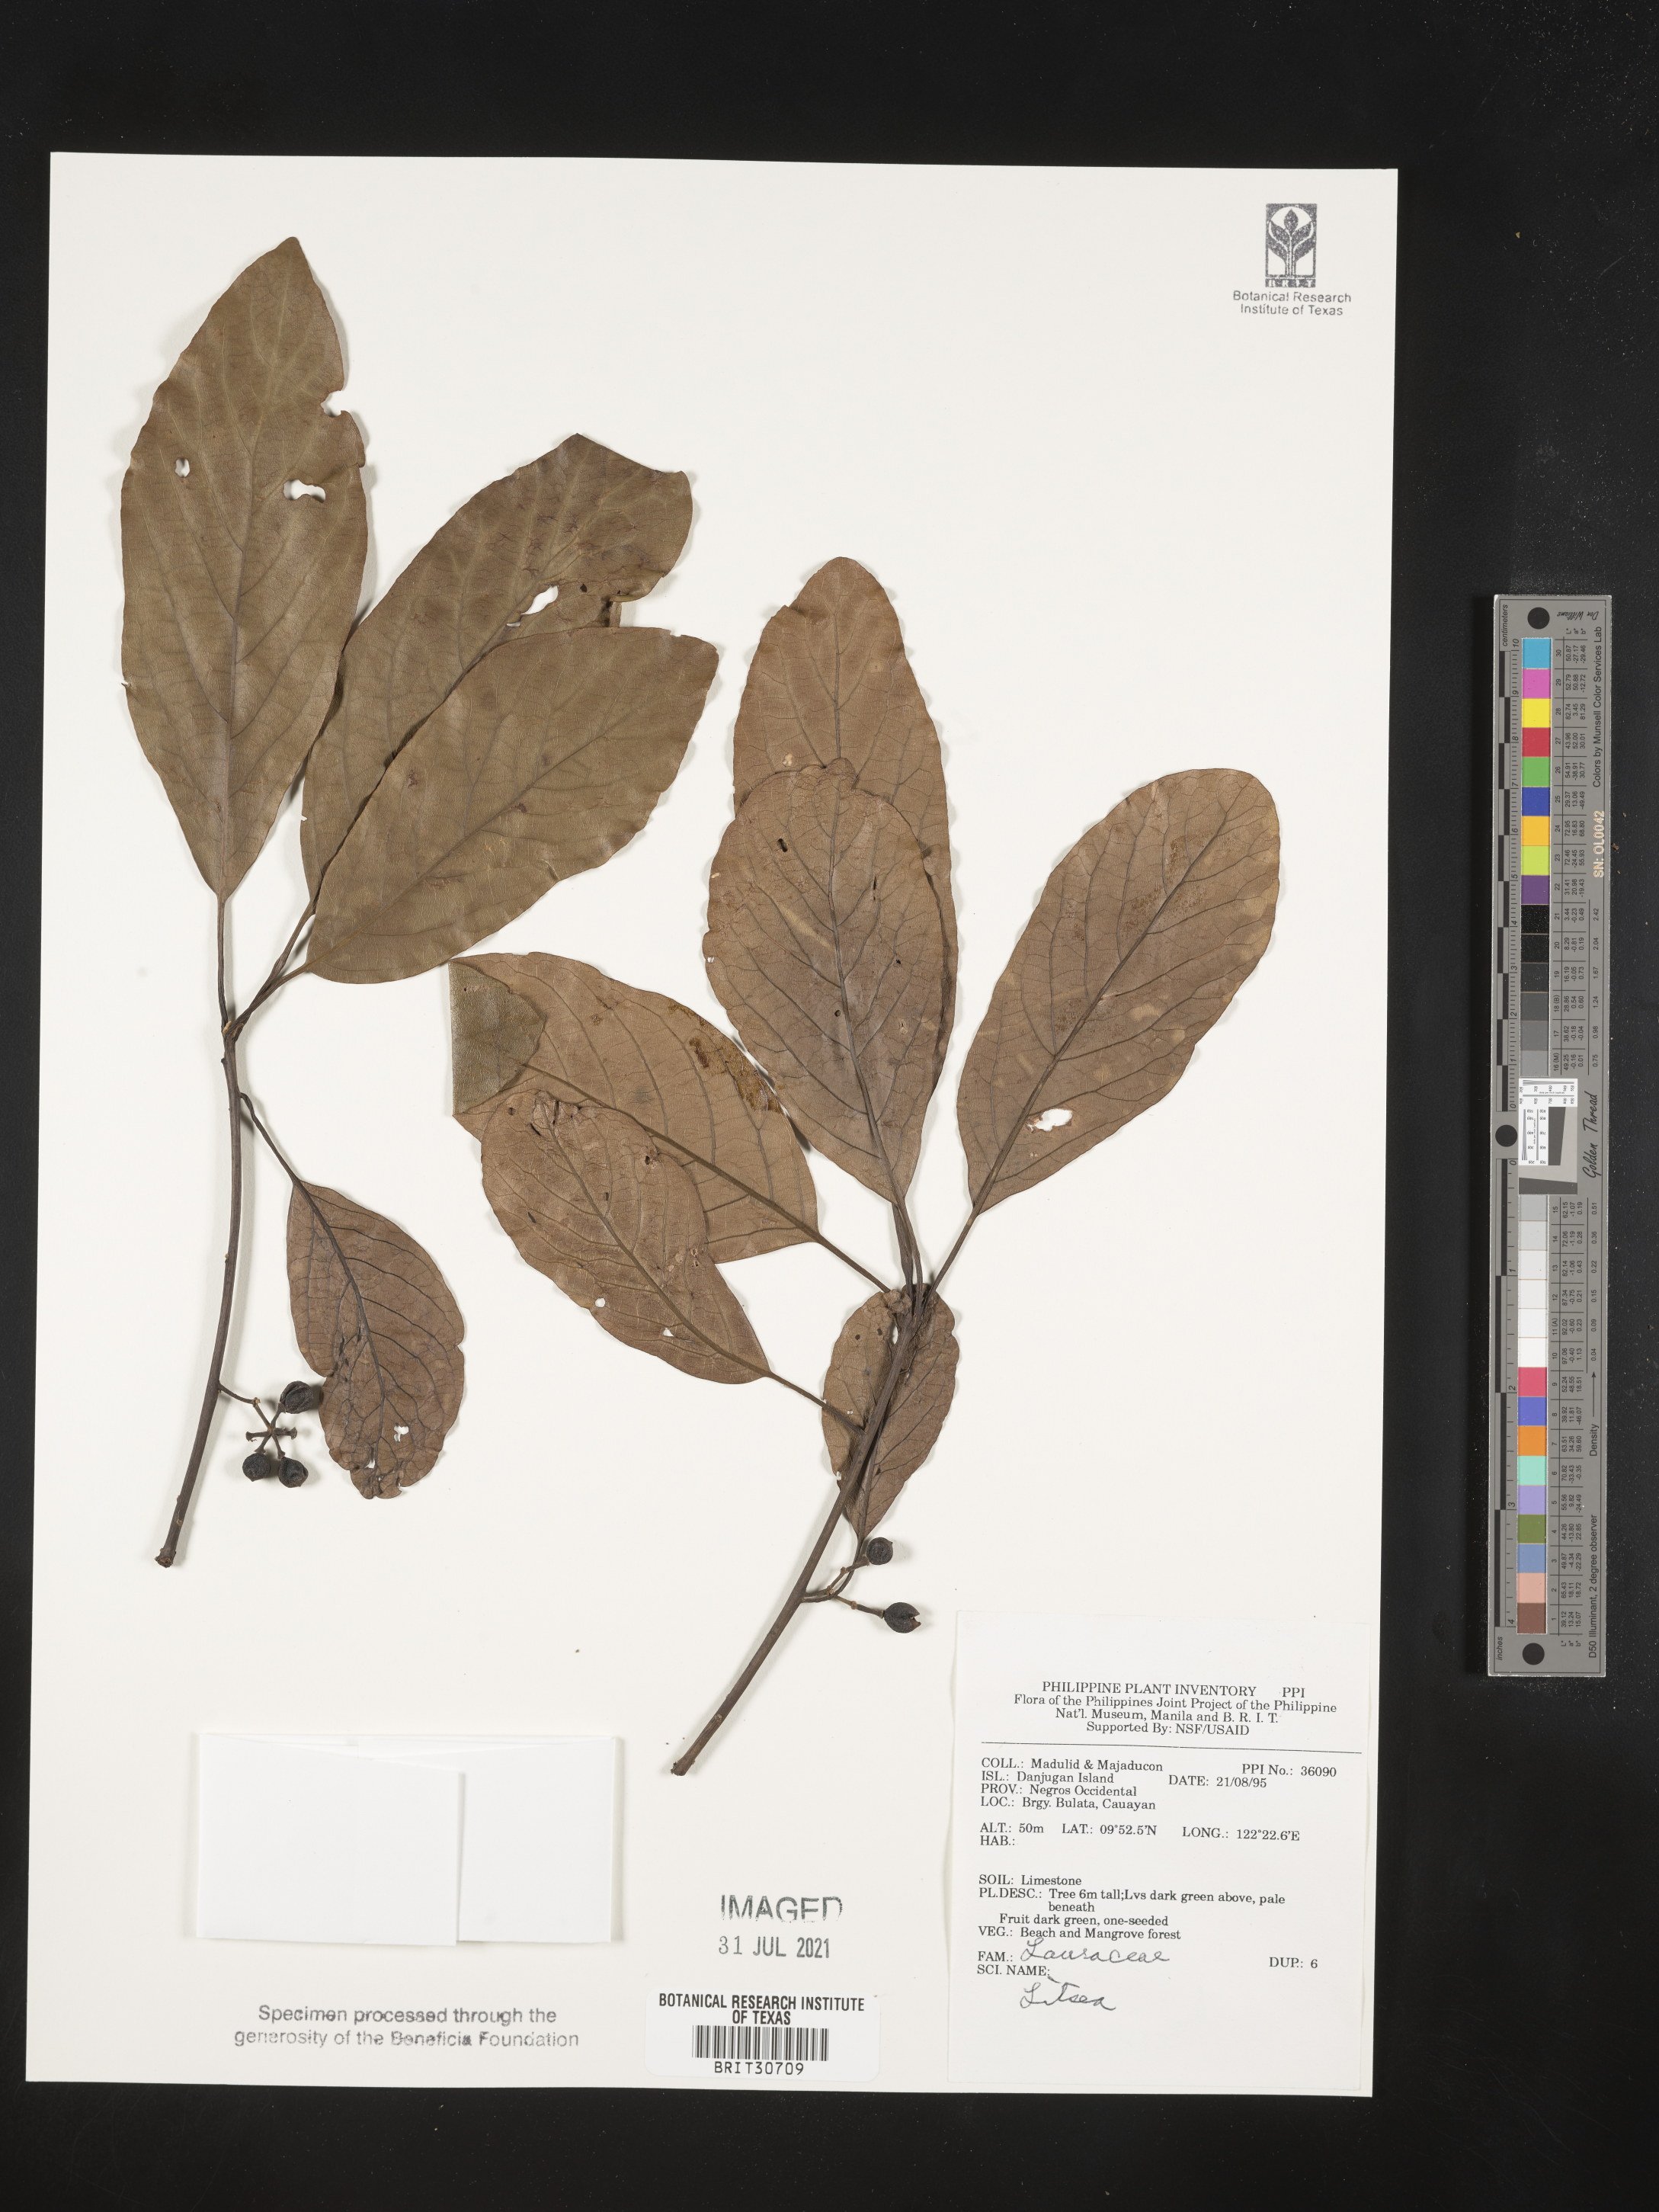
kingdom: Plantae
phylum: Tracheophyta
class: Magnoliopsida
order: Laurales
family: Lauraceae
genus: Litsea
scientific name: Litsea
